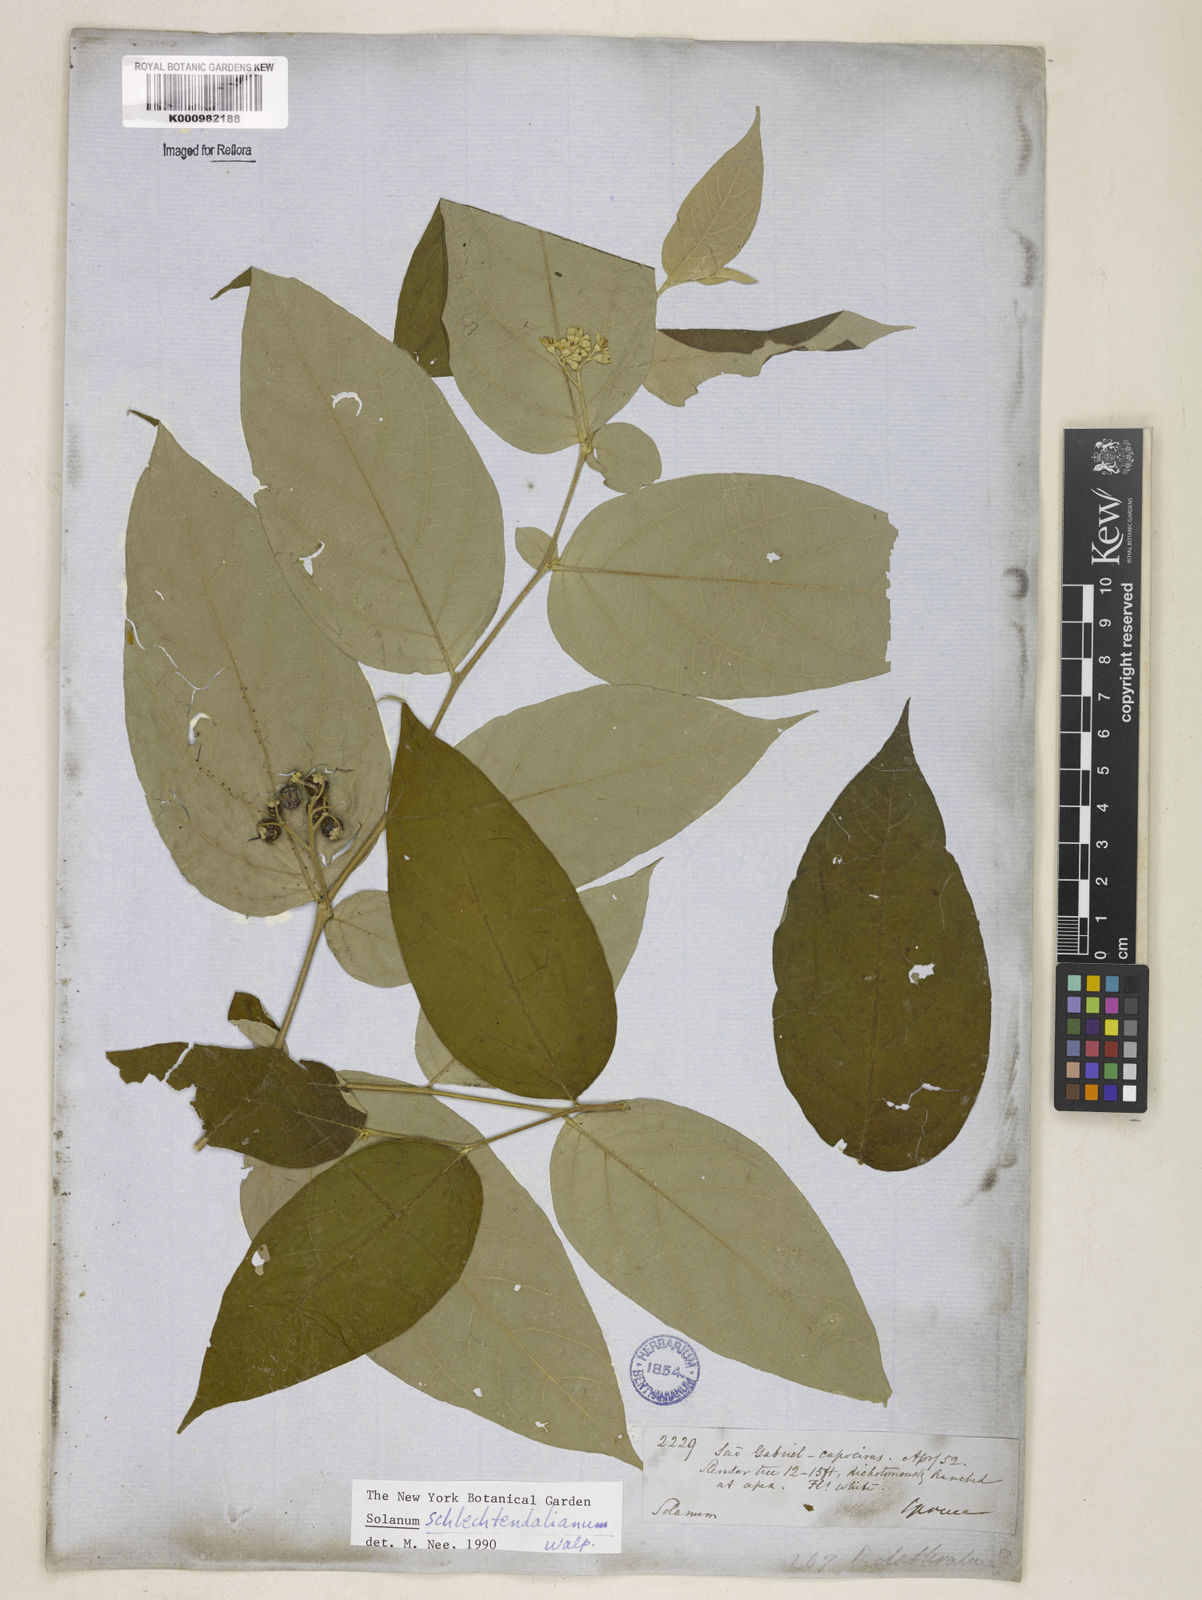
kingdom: Plantae
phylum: Tracheophyta
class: Magnoliopsida
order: Solanales
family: Solanaceae
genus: Solanum
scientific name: Solanum schlechtendalianum
